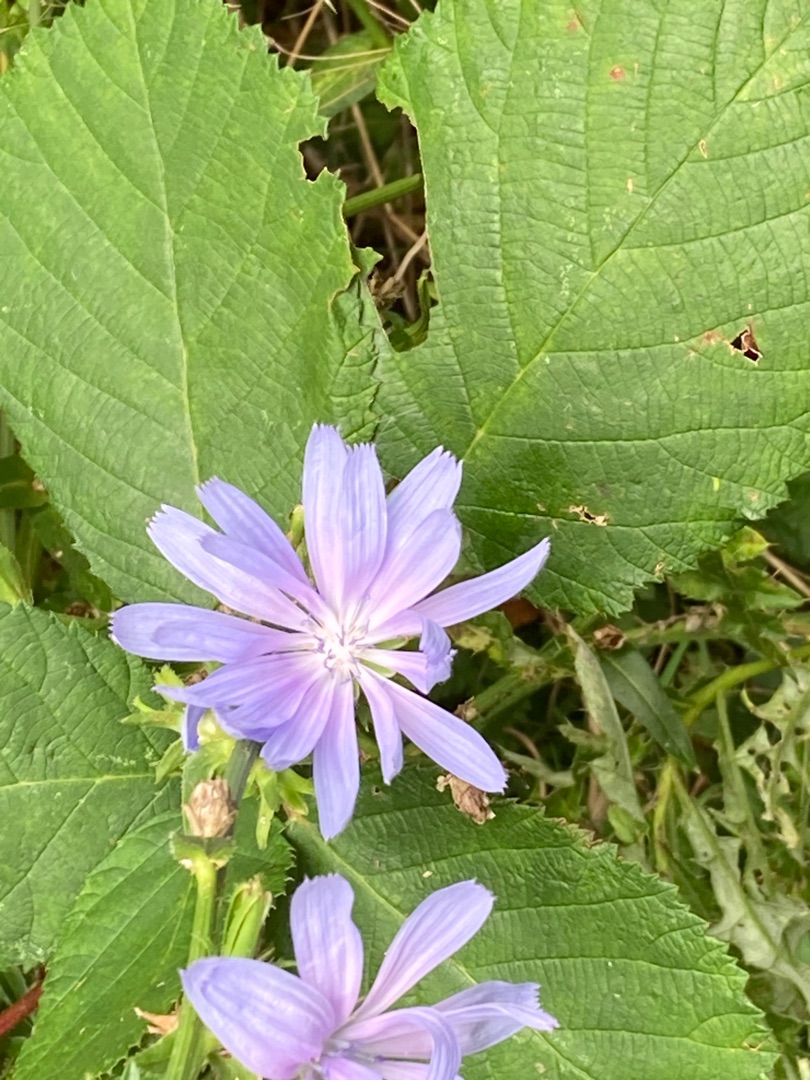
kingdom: Plantae
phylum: Tracheophyta
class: Magnoliopsida
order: Asterales
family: Asteraceae
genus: Cichorium
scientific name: Cichorium intybus
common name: Cikorie
